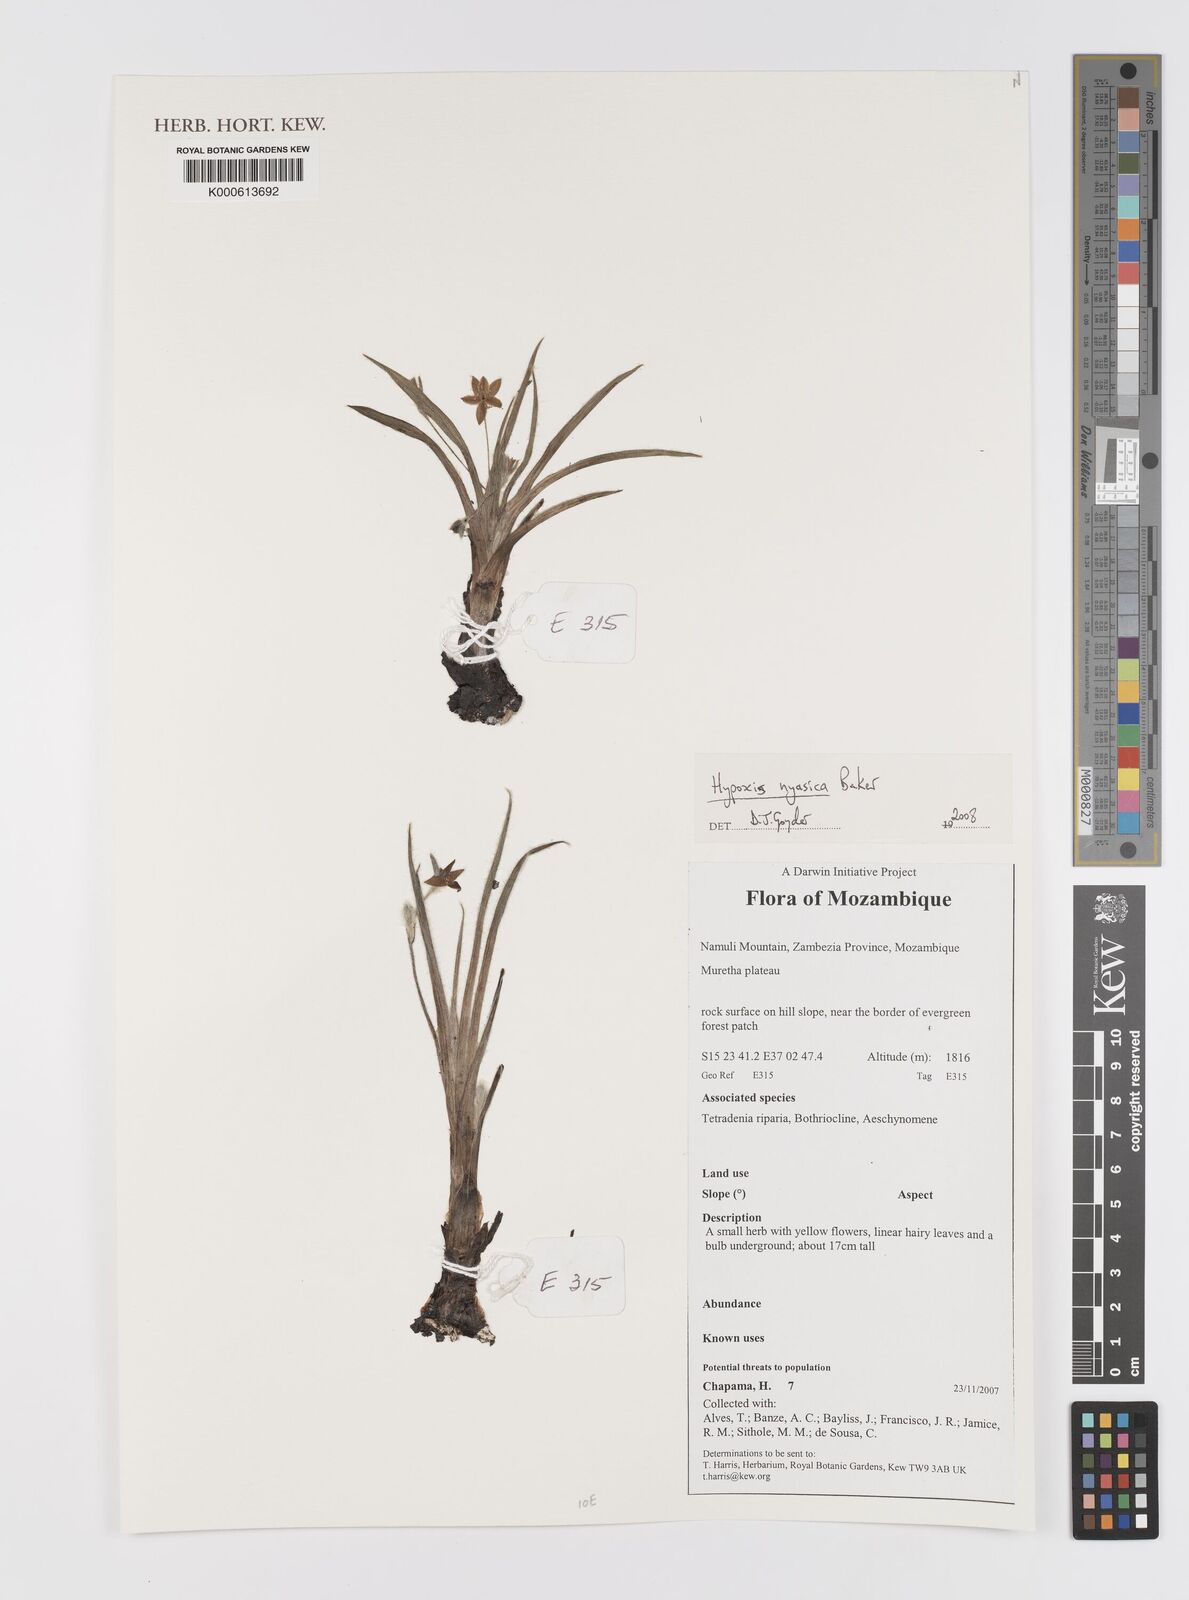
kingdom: Plantae
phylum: Tracheophyta
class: Liliopsida
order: Asparagales
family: Hypoxidaceae
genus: Hypoxis
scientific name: Hypoxis nyasica
